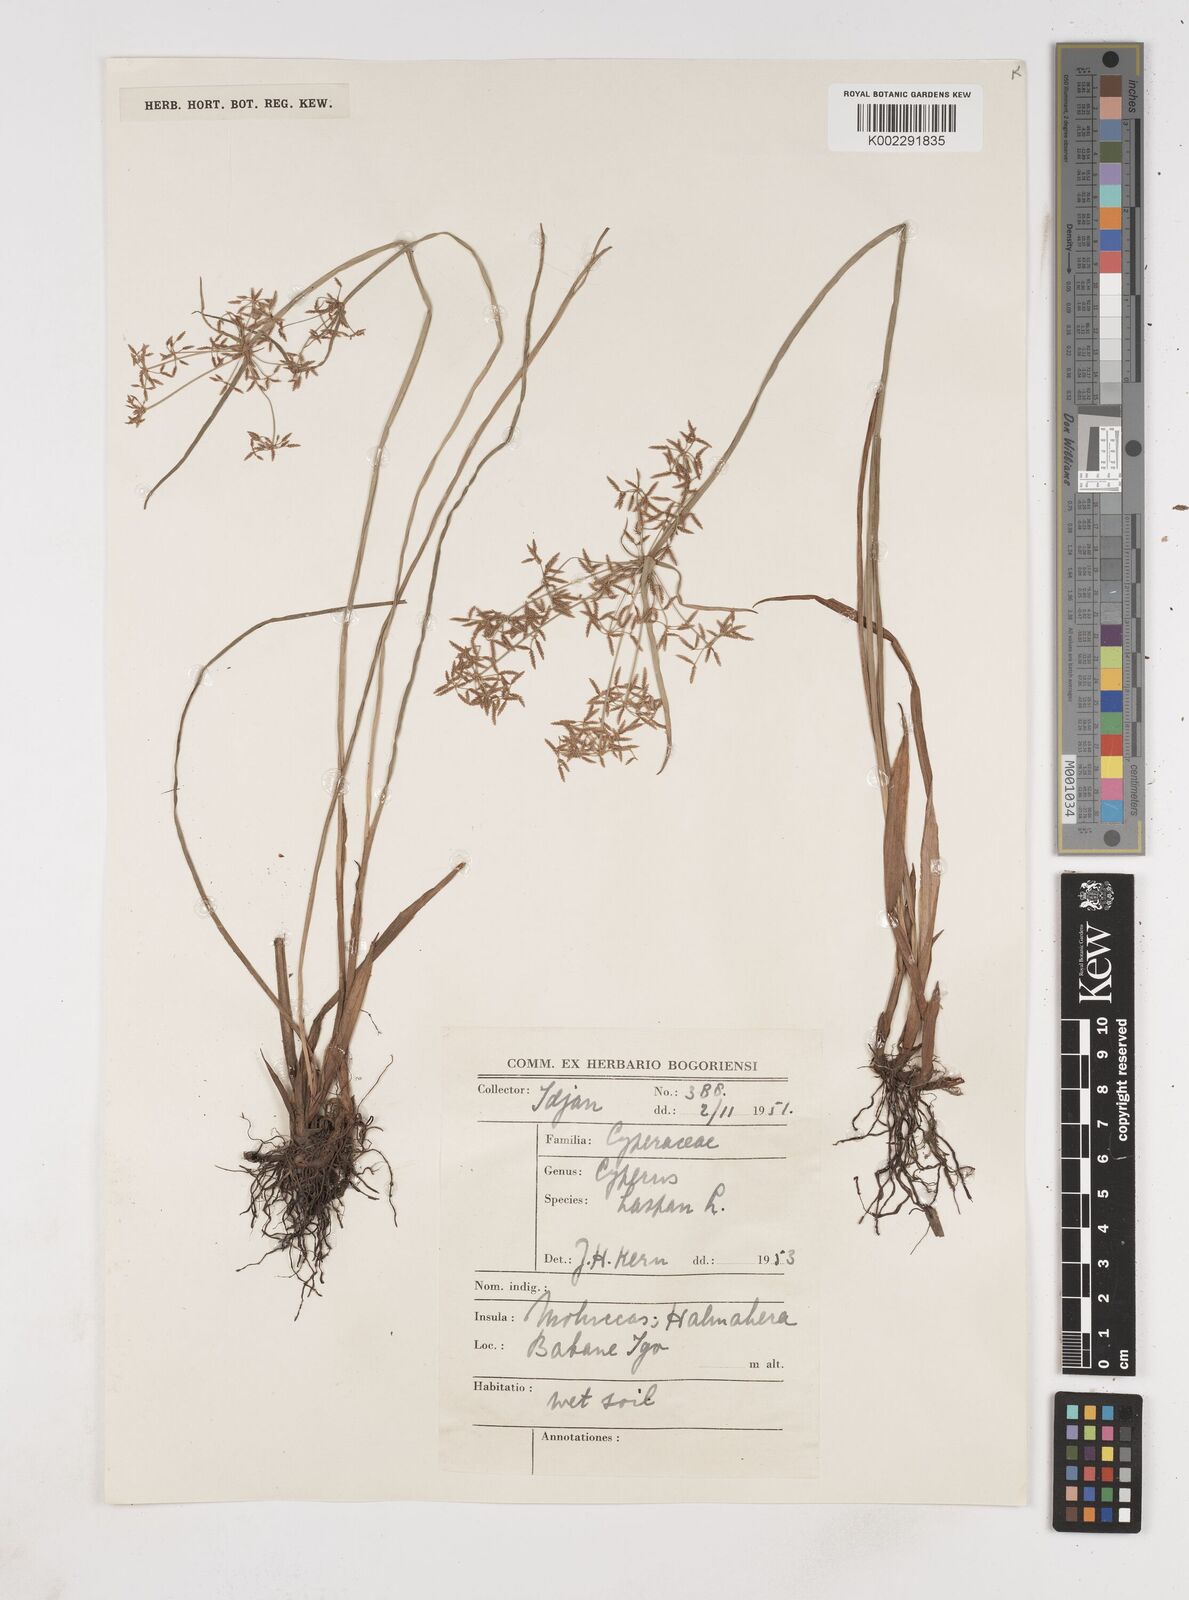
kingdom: Plantae
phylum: Tracheophyta
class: Liliopsida
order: Poales
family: Cyperaceae
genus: Cyperus
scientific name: Cyperus haspan
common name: Haspan flatsedge
